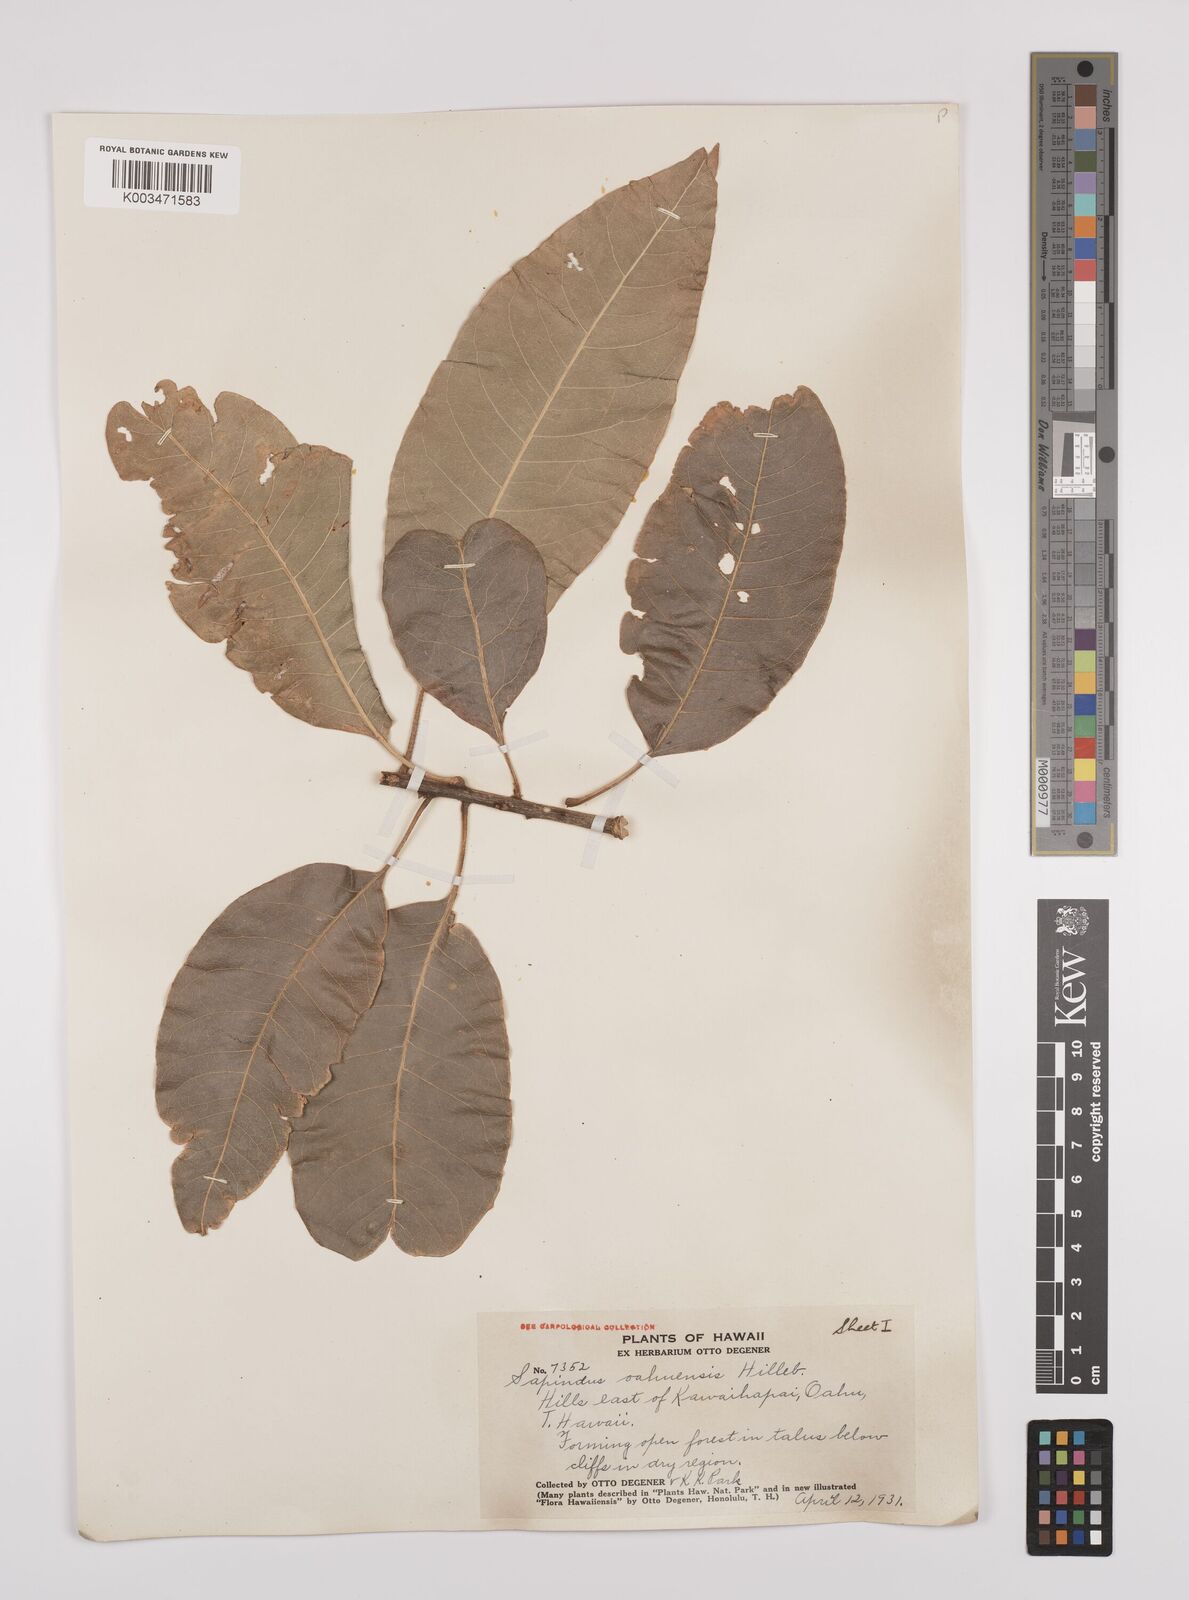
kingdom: Plantae
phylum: Tracheophyta
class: Magnoliopsida
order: Sapindales
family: Sapindaceae
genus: Sapindus
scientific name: Sapindus oahuensis
